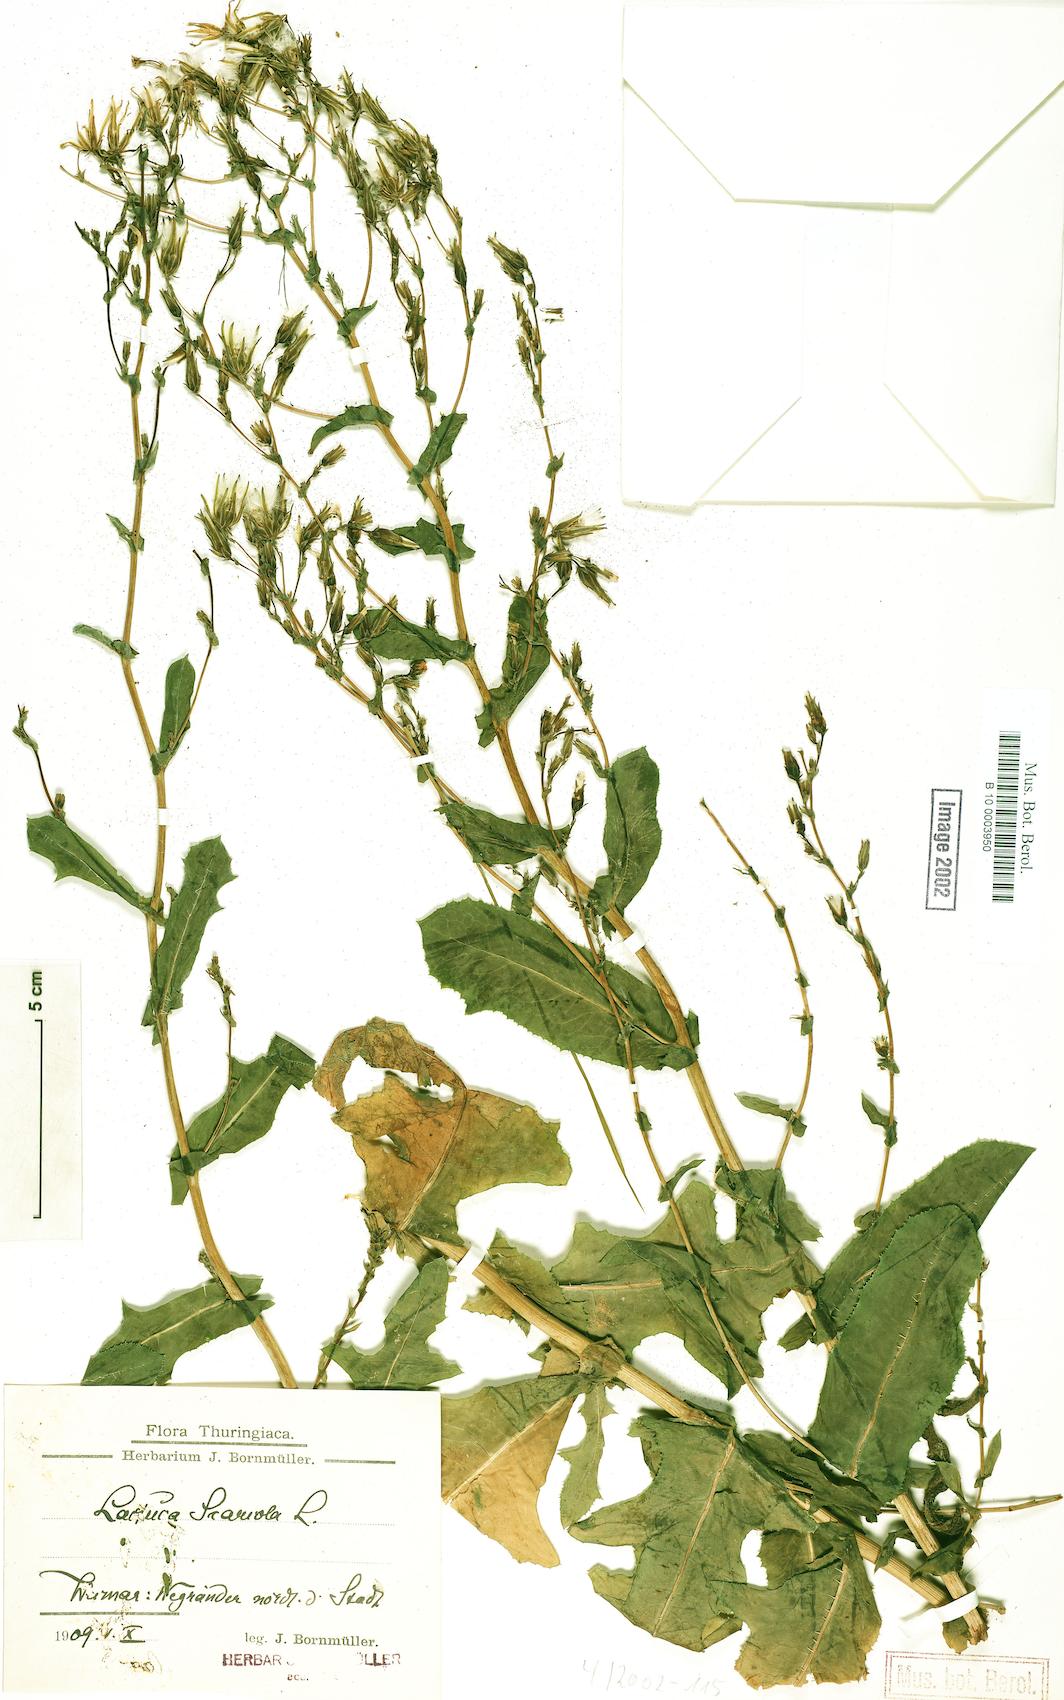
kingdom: Plantae
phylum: Tracheophyta
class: Magnoliopsida
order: Asterales
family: Asteraceae
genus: Lactuca
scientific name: Lactuca serriola
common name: Prickly lettuce
